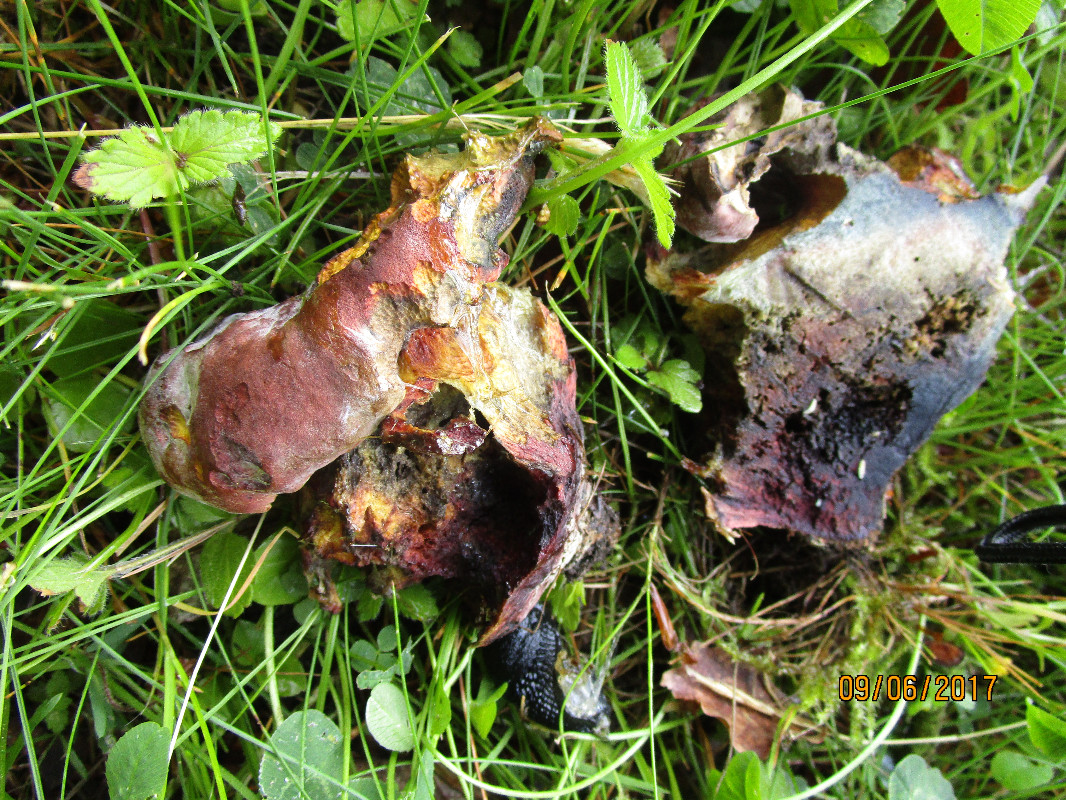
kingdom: Fungi
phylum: Basidiomycota
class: Agaricomycetes
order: Boletales
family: Boletaceae
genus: Suillellus
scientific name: Suillellus queletii
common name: glatstokket indigorørhat
